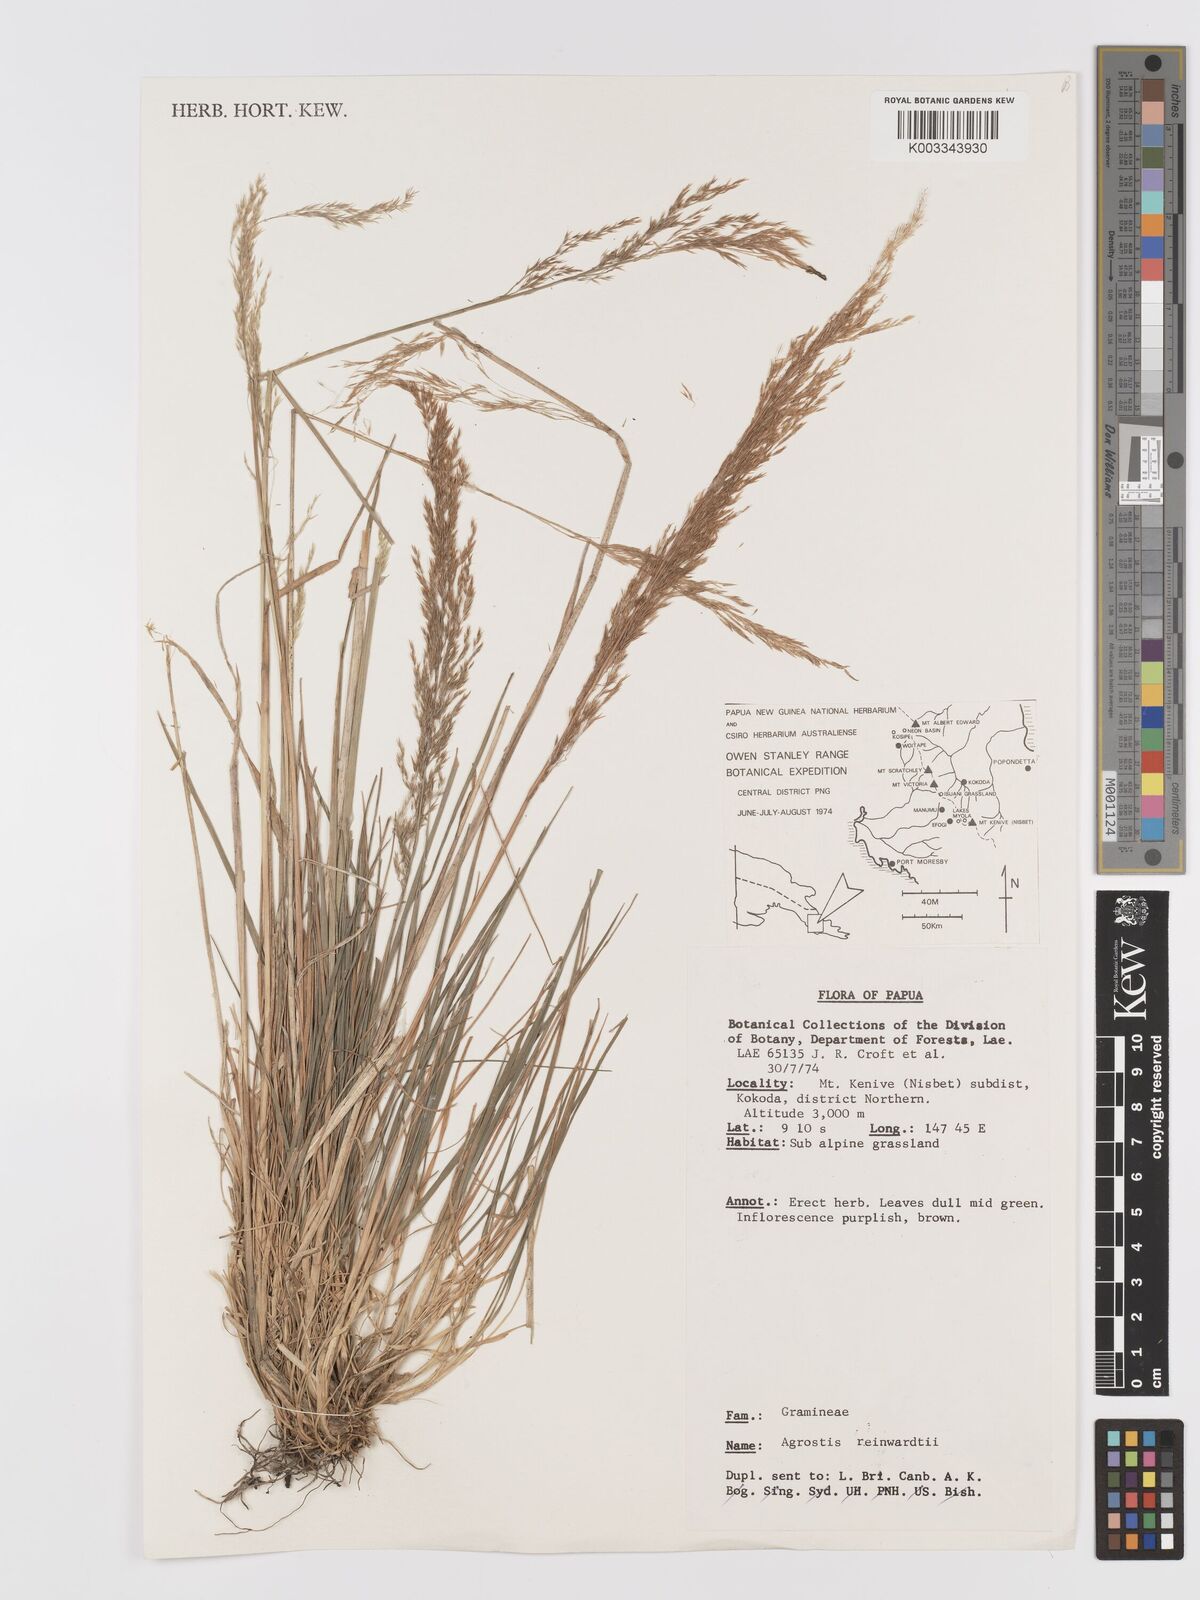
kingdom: Plantae
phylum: Tracheophyta
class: Liliopsida
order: Poales
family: Poaceae
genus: Agrostis
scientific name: Agrostis infirma
